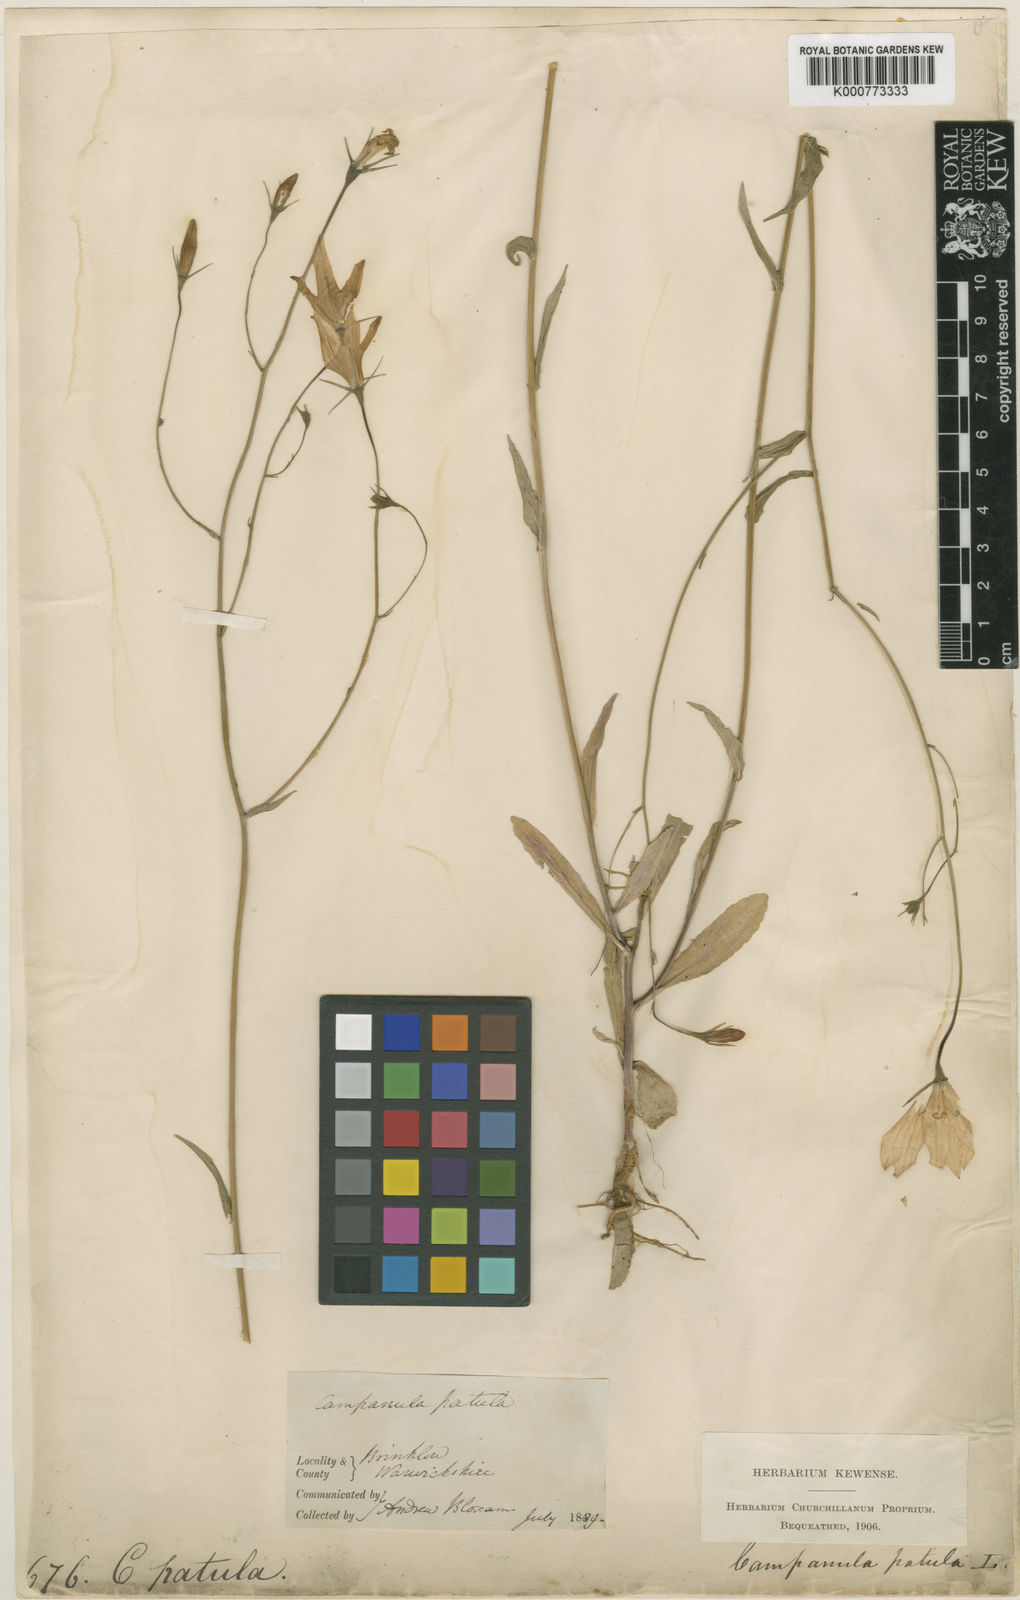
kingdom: Plantae
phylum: Tracheophyta
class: Magnoliopsida
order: Asterales
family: Campanulaceae
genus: Campanula
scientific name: Campanula patula
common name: Spreading bellflower
